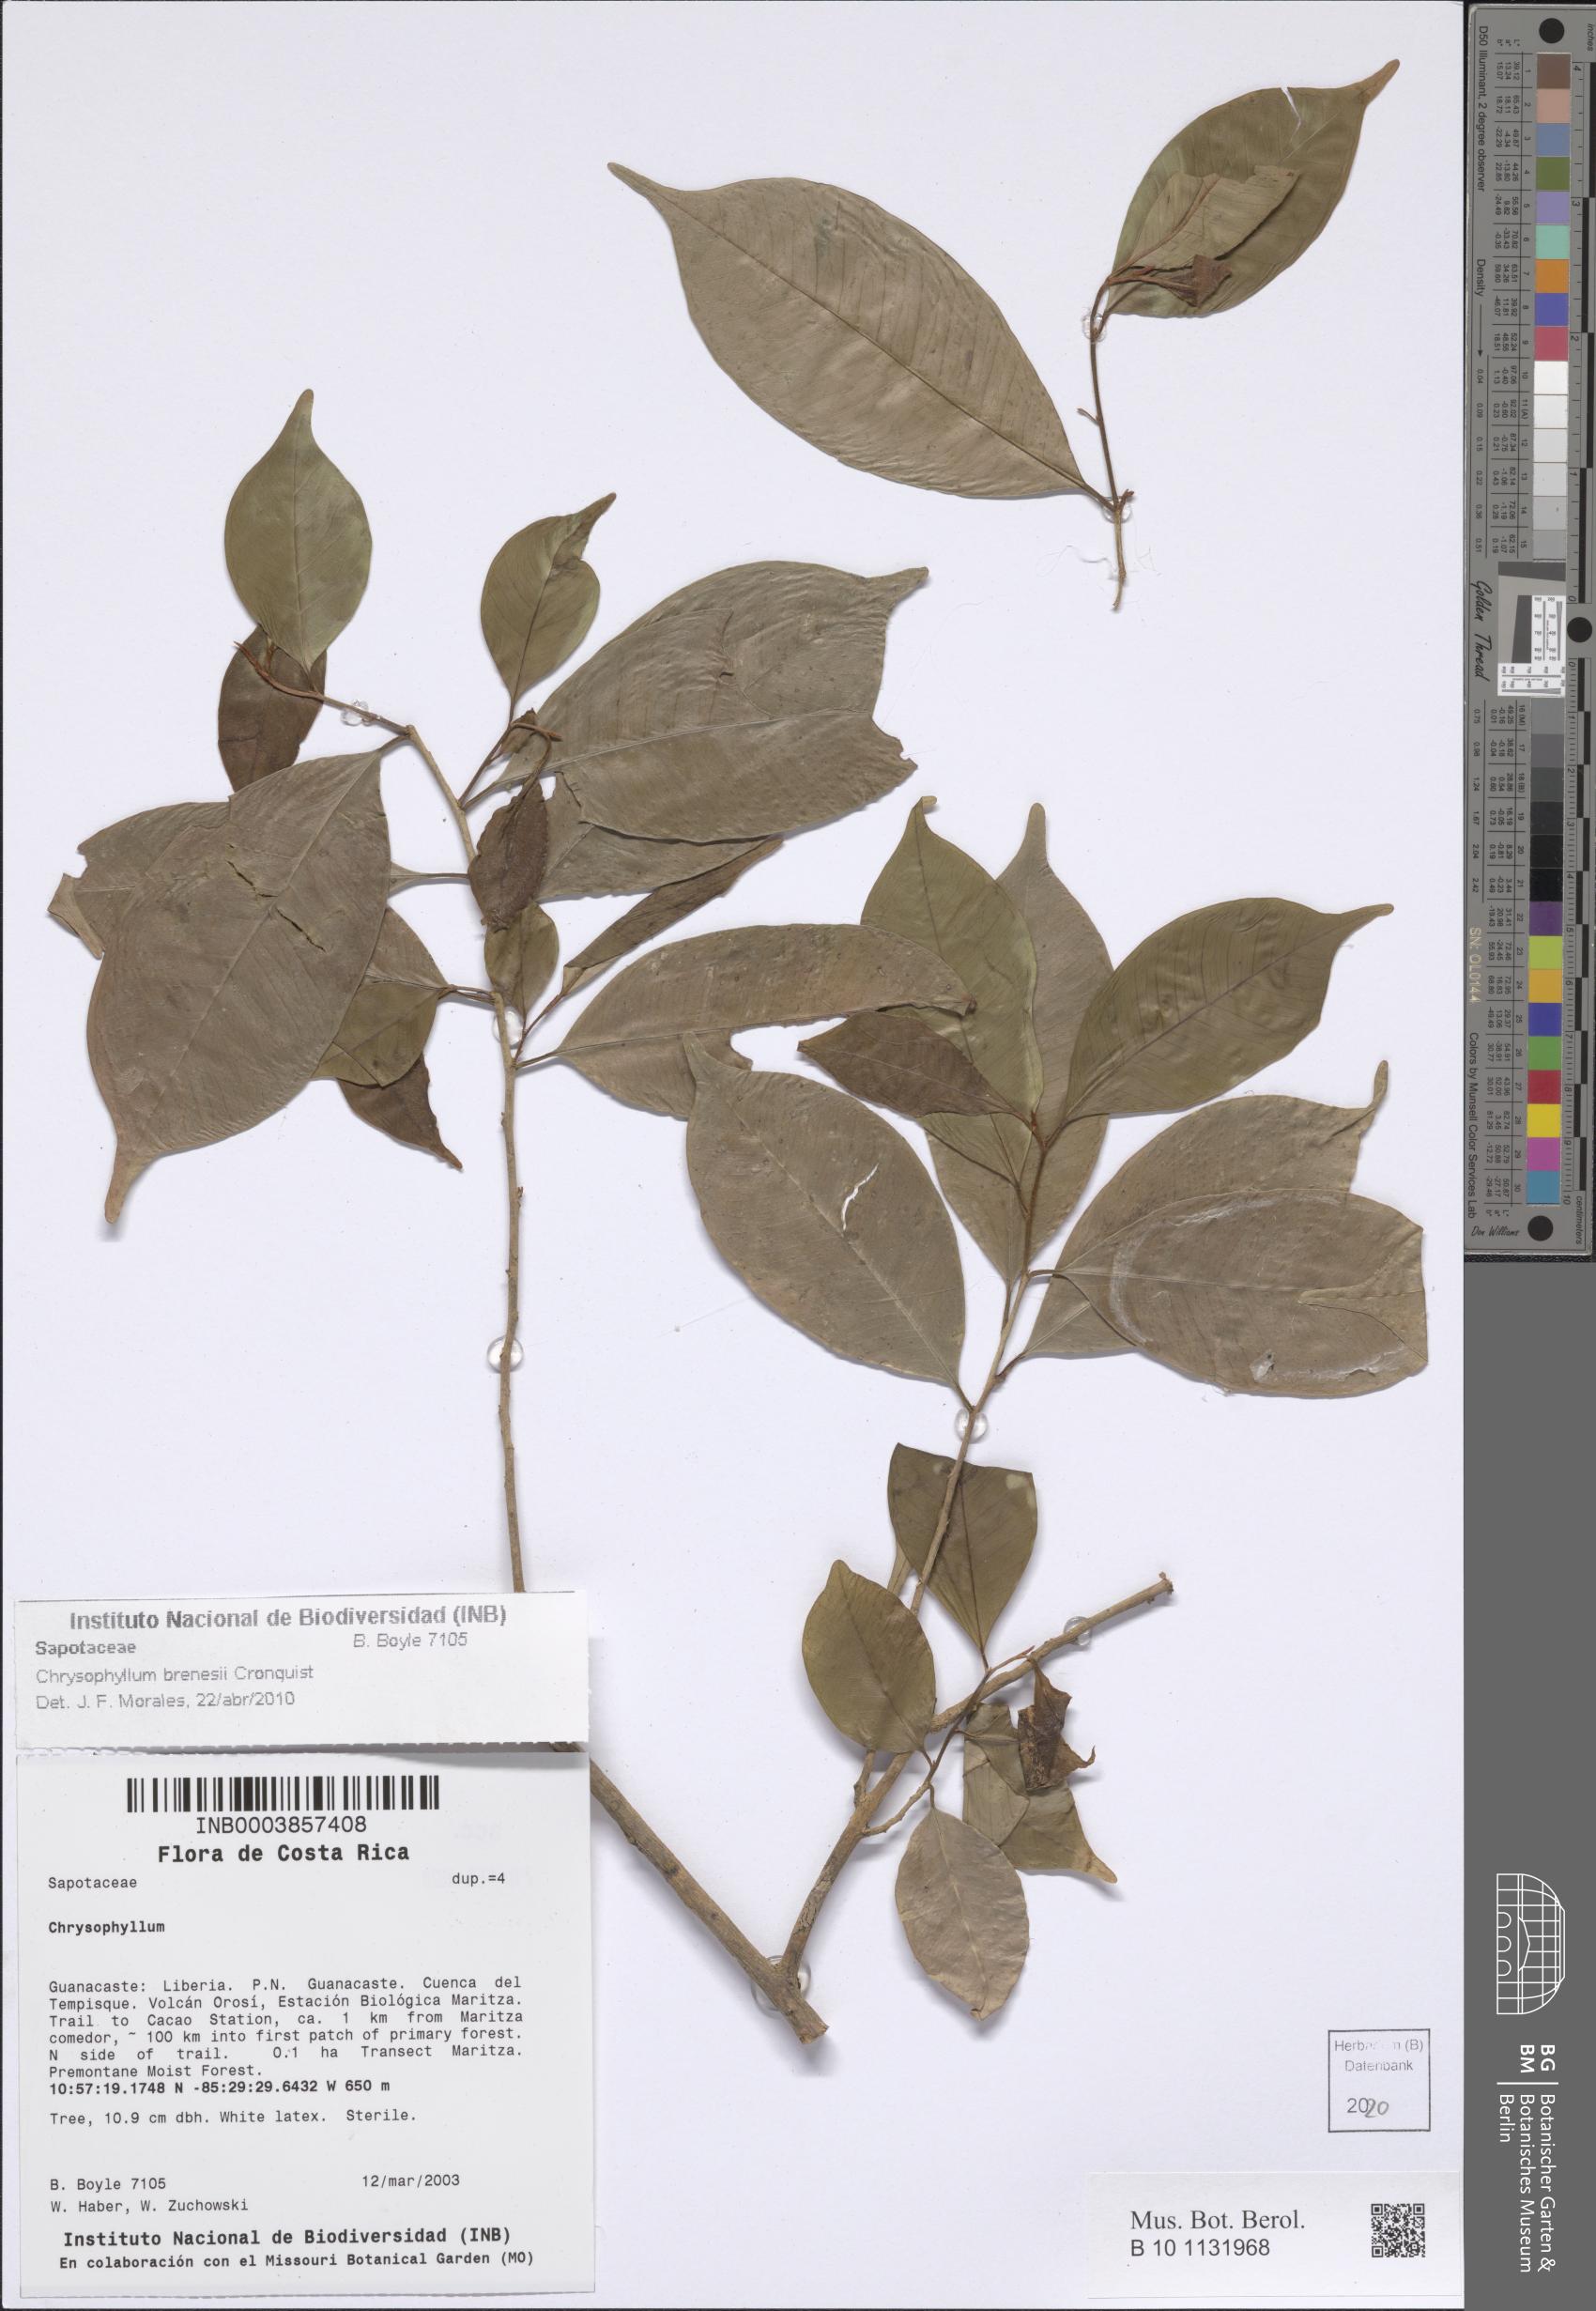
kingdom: Plantae
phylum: Tracheophyta
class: Magnoliopsida
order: Ericales
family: Sapotaceae
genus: Chrysophyllum
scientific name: Chrysophyllum brenesii
